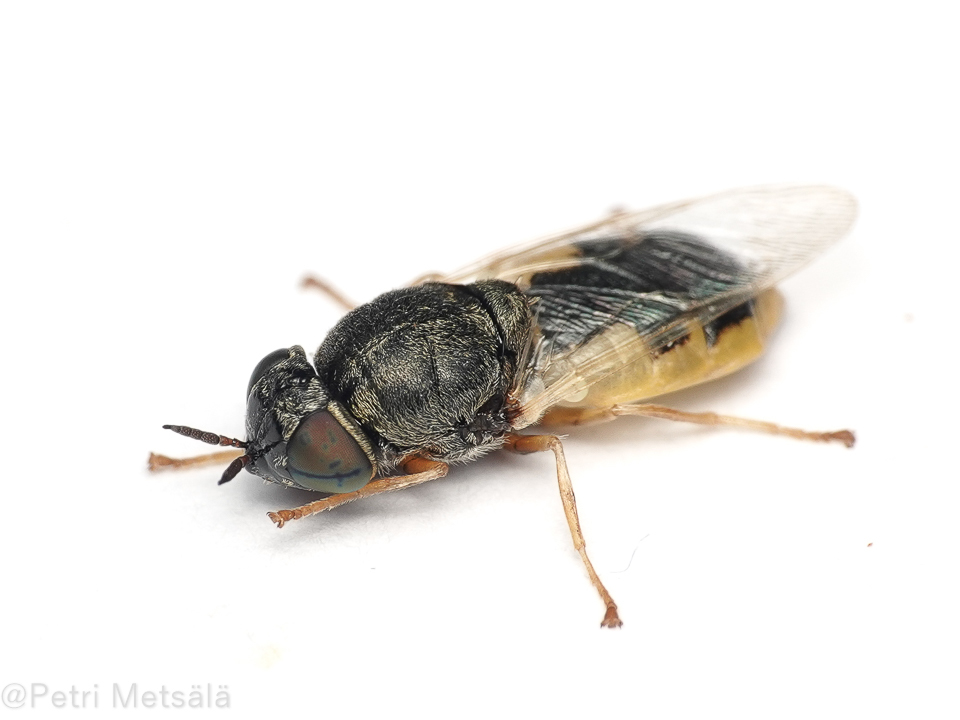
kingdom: Animalia
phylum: Arthropoda
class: Insecta
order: Diptera
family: Stratiomyidae
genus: Oplodontha
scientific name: Oplodontha viridula
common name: Common green colonel
